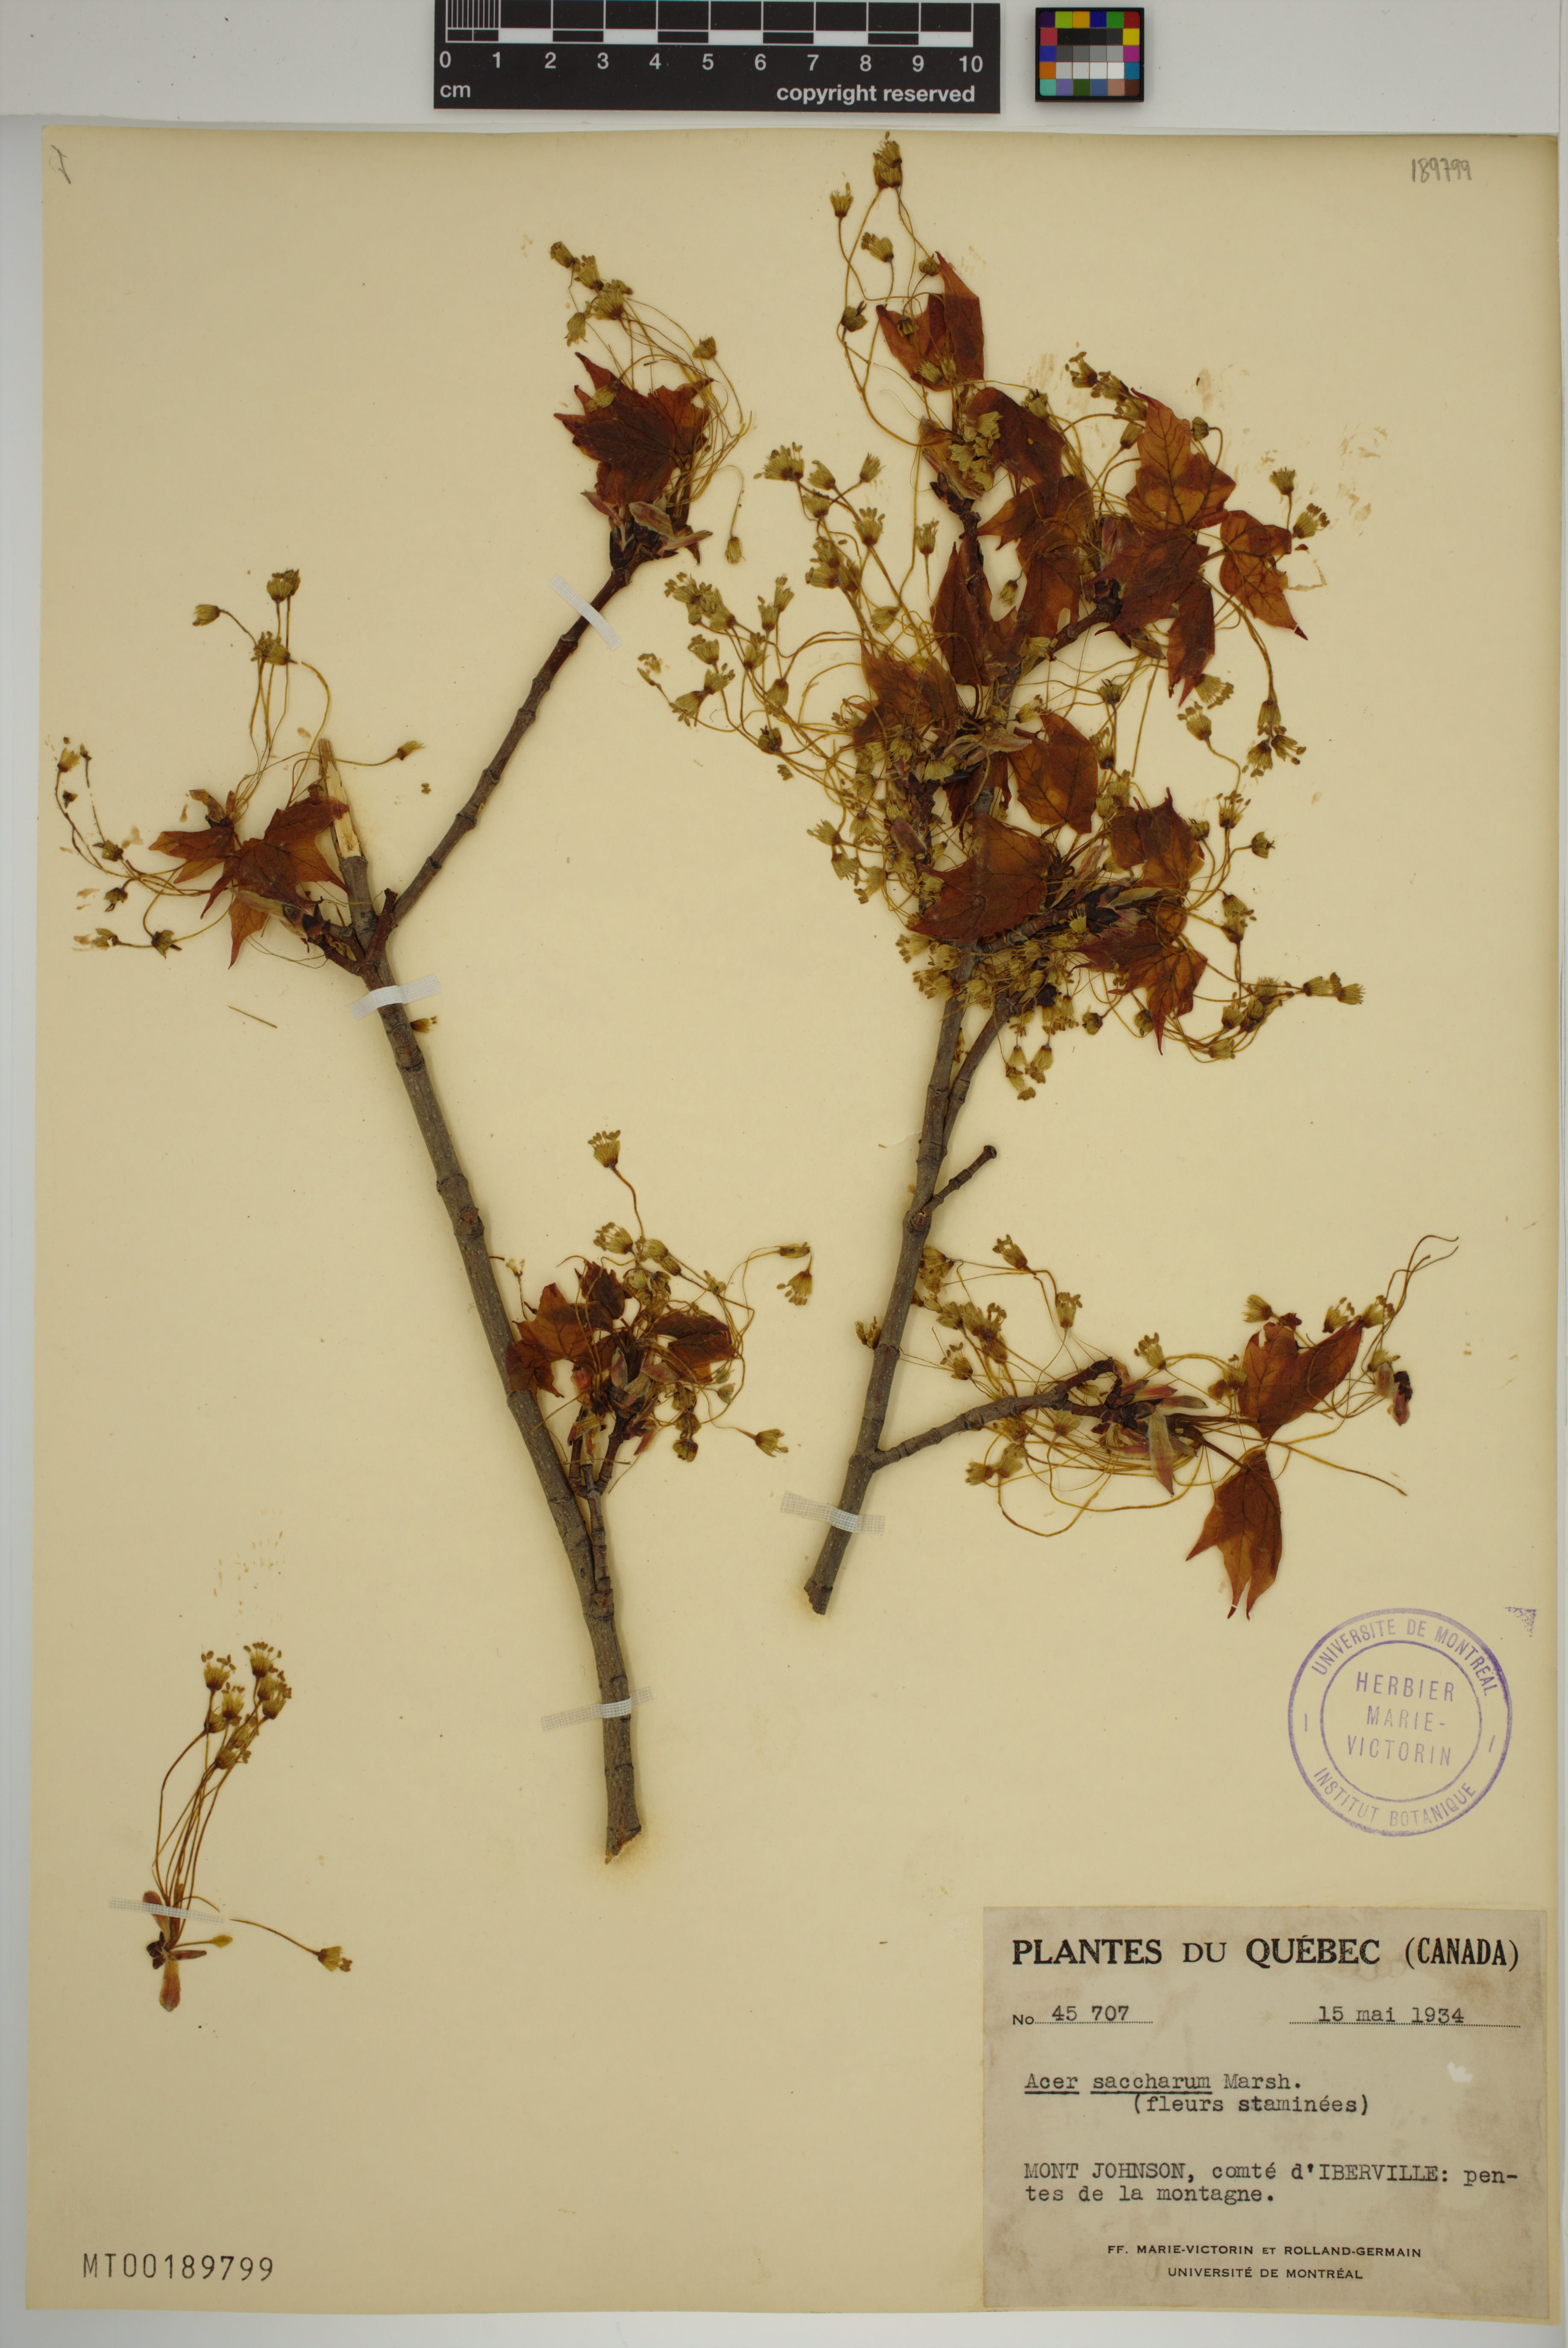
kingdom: Plantae
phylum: Tracheophyta
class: Magnoliopsida
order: Sapindales
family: Sapindaceae
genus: Acer
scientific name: Acer saccharum
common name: Sugar maple
